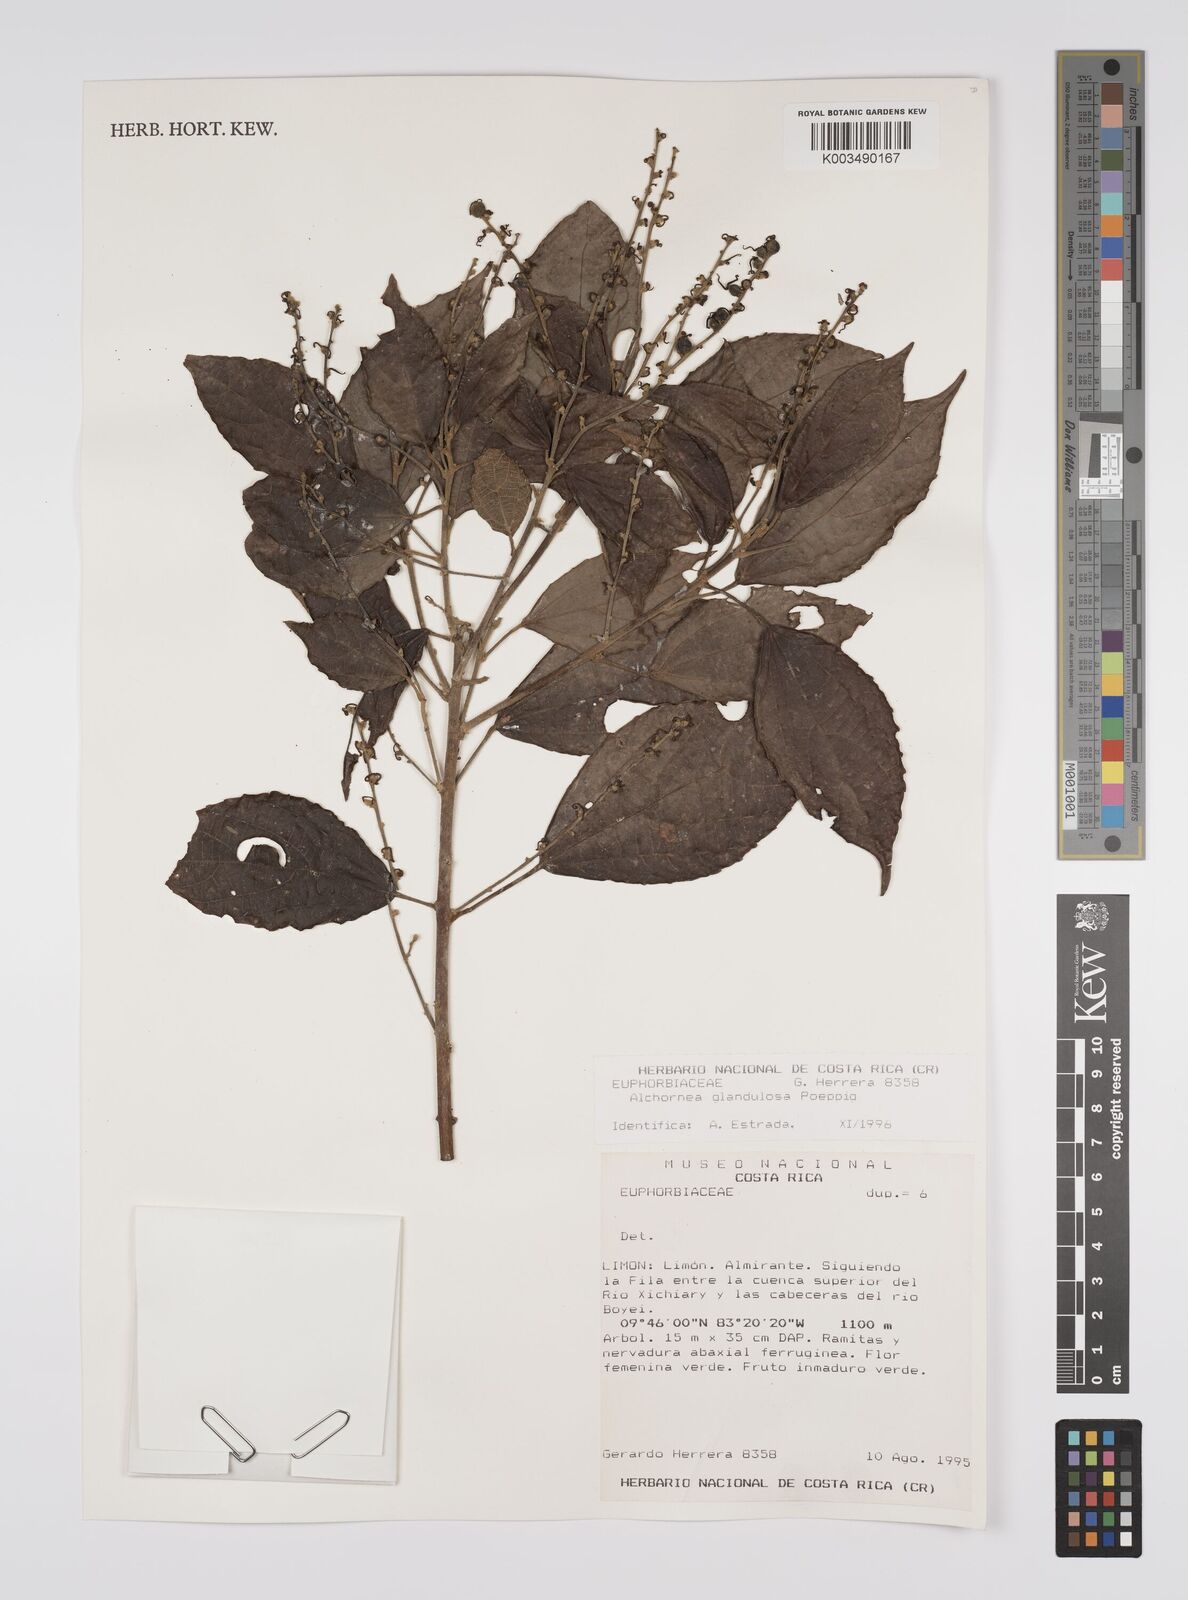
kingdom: Plantae
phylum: Tracheophyta
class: Magnoliopsida
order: Malpighiales
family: Euphorbiaceae
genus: Alchornea
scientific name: Alchornea glandulosa
